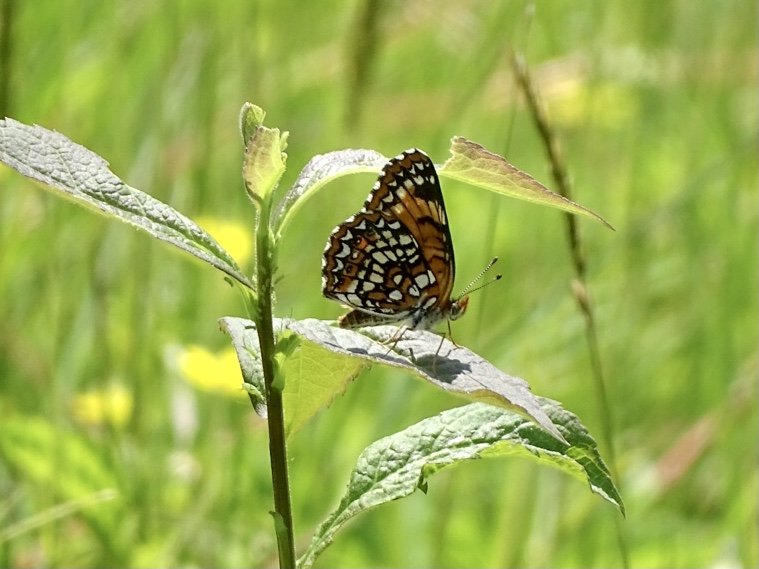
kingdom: Animalia
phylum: Arthropoda
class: Insecta
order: Lepidoptera
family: Nymphalidae
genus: Chlosyne
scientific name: Chlosyne harrisii
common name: Harris's Checkerspot
